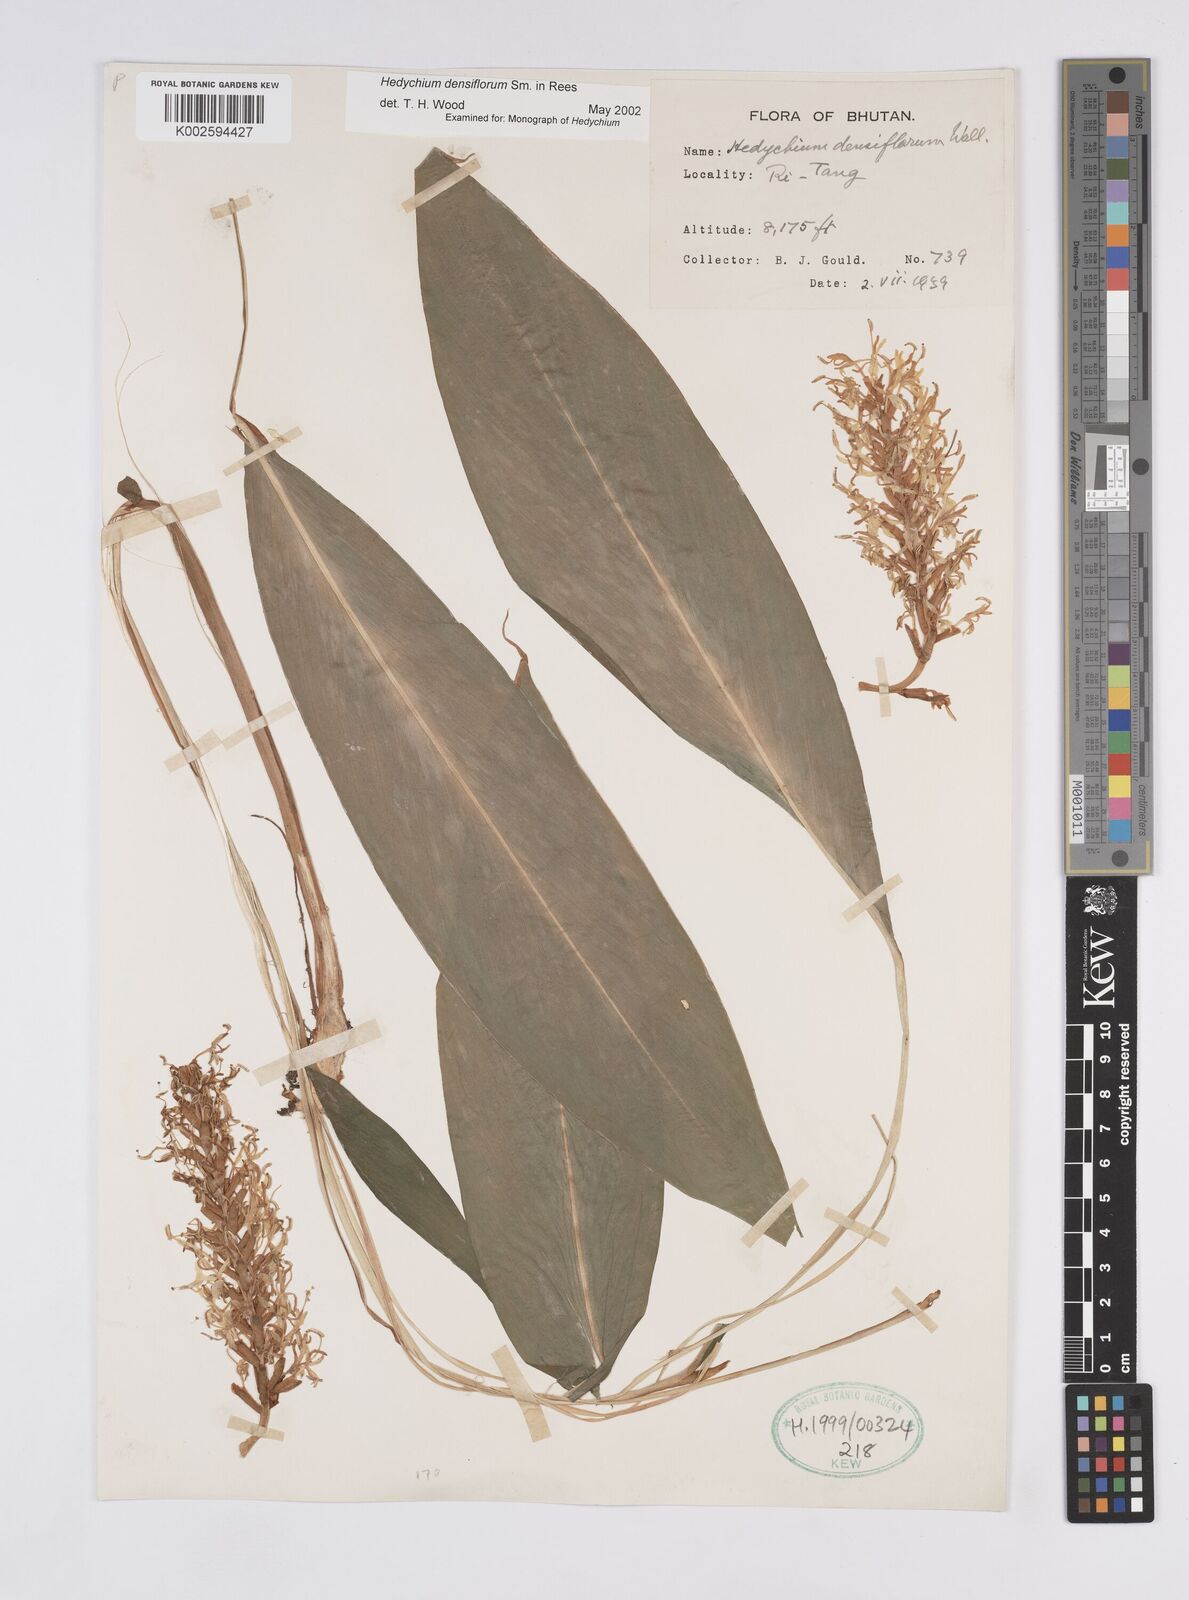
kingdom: Plantae
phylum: Tracheophyta
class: Liliopsida
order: Zingiberales
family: Zingiberaceae
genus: Hedychium
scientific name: Hedychium densiflorum
